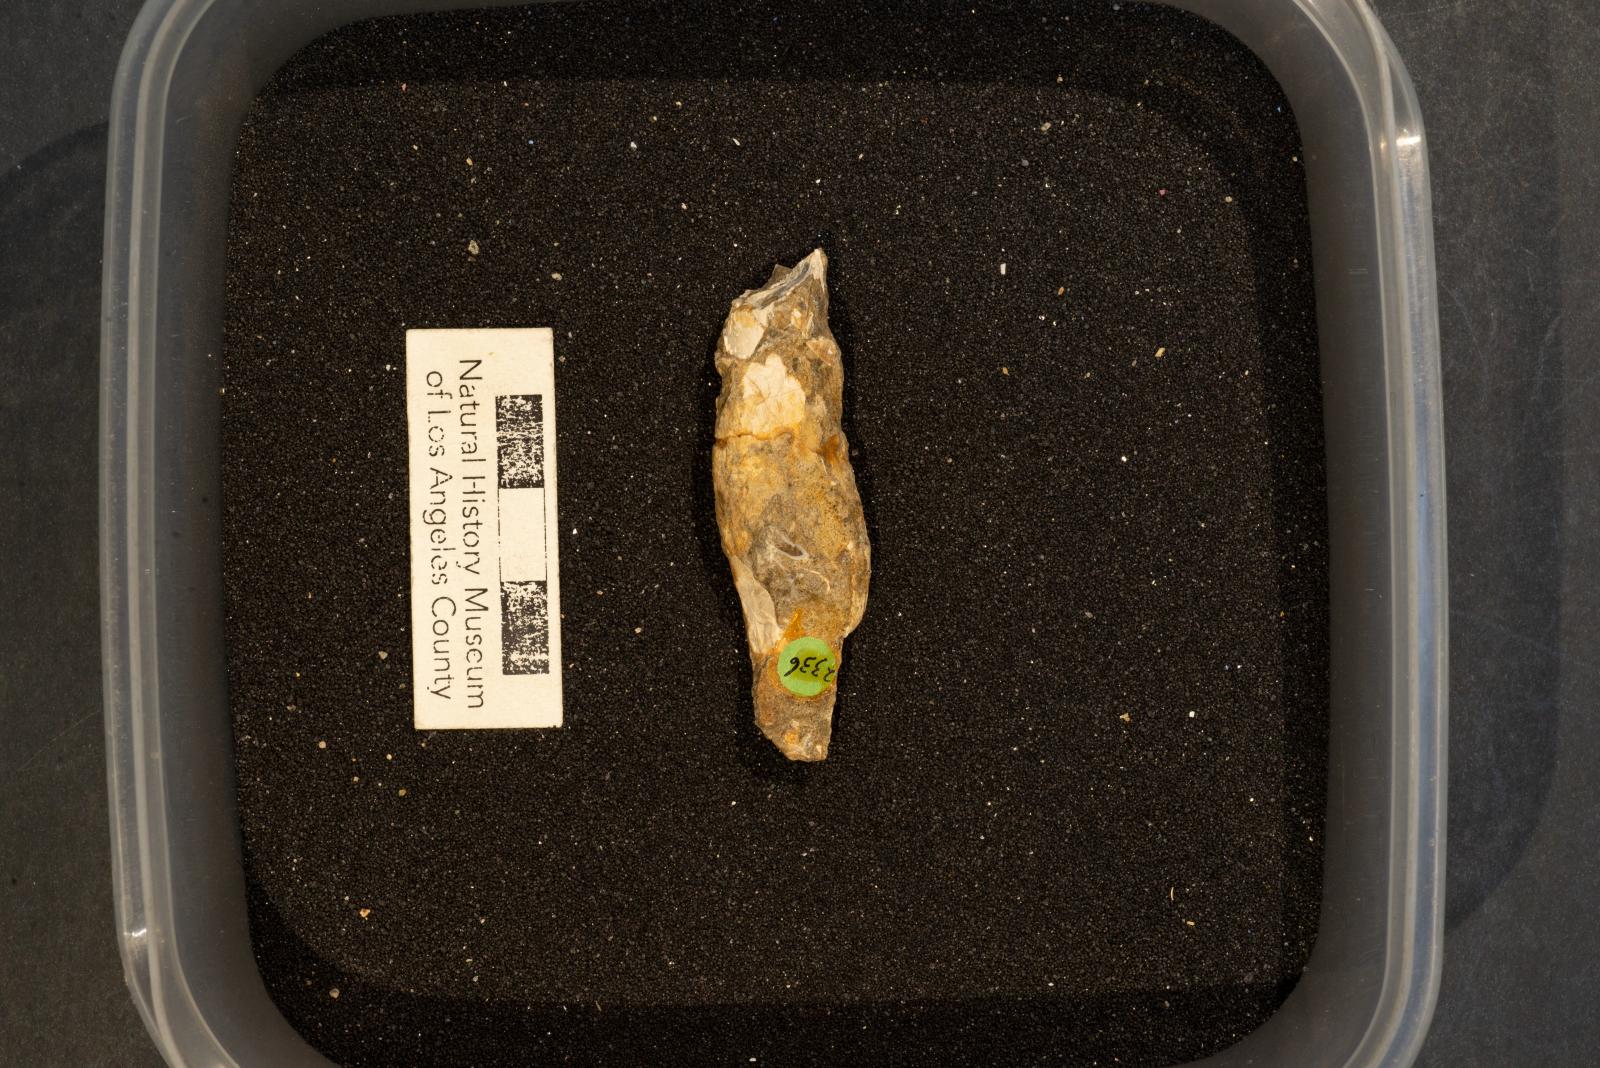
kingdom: Animalia
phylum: Mollusca
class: Gastropoda
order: Neogastropoda
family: Ptychatractidae
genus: Exilia
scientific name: Exilia stechesonae
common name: Snail
